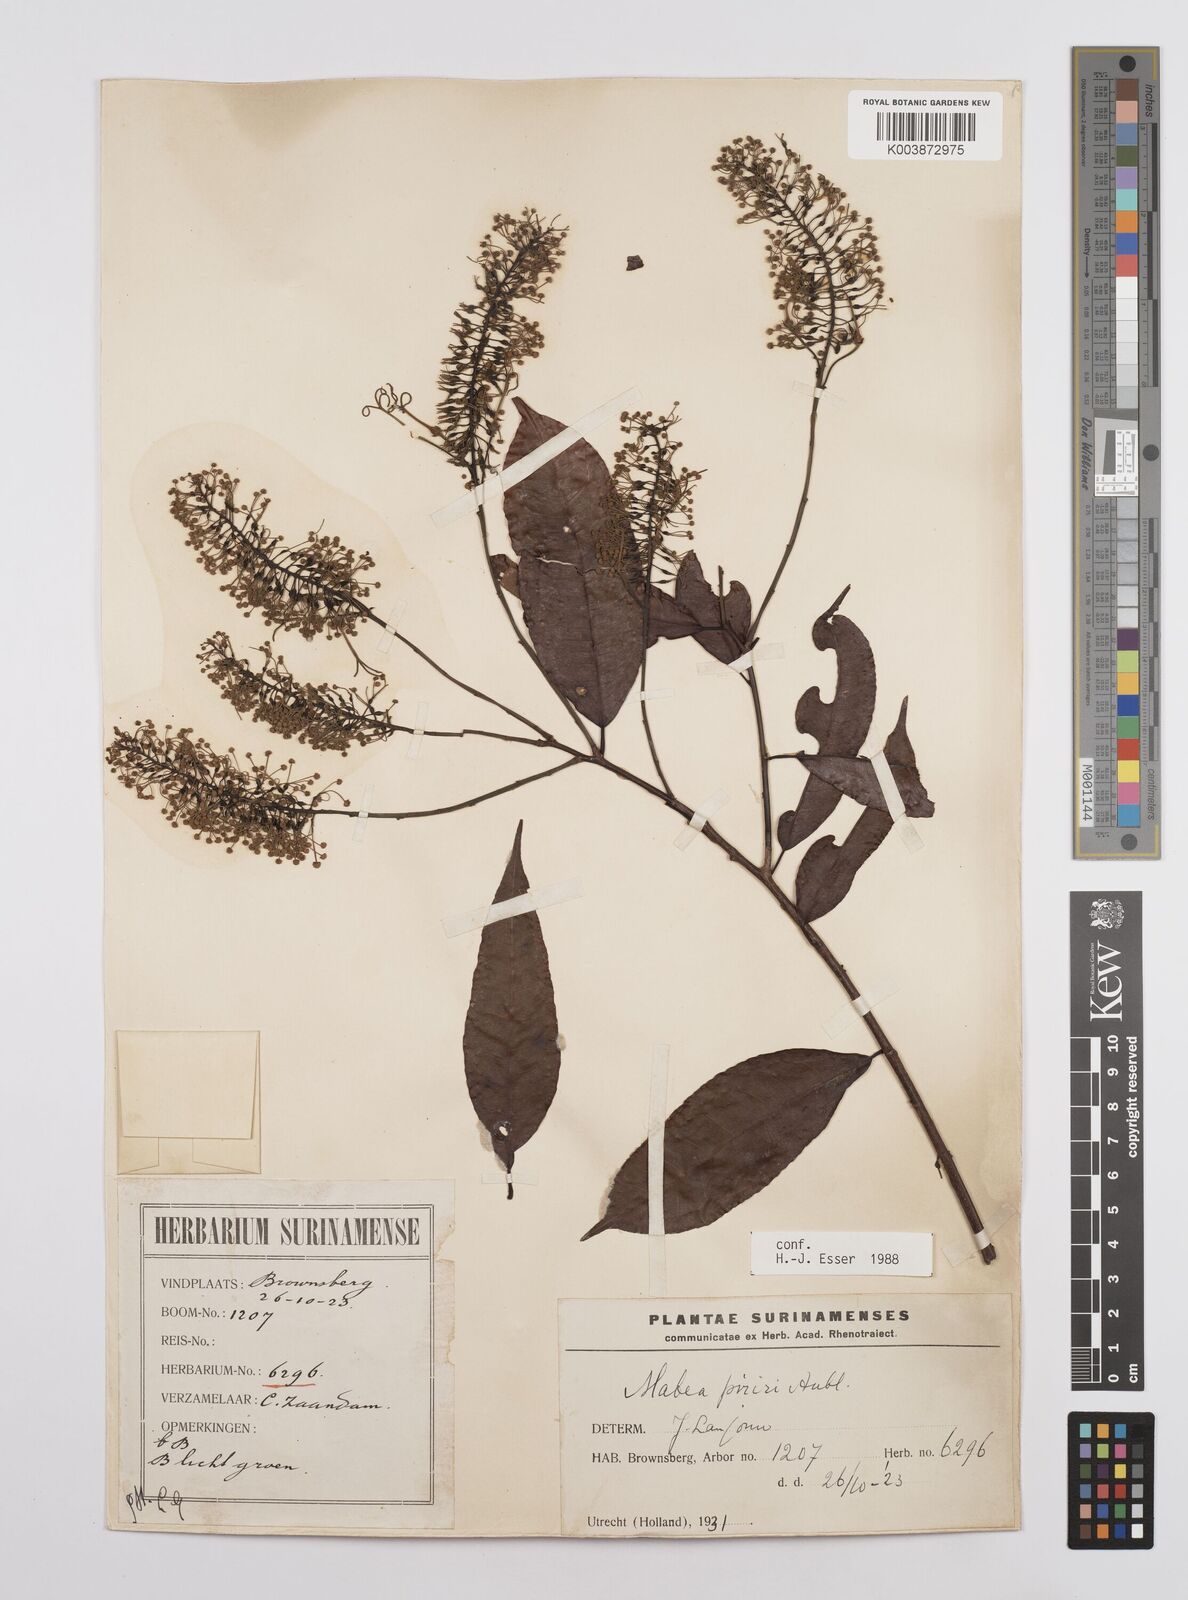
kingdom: Plantae
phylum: Tracheophyta
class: Magnoliopsida
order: Malpighiales
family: Euphorbiaceae
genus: Mabea
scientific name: Mabea piriri
